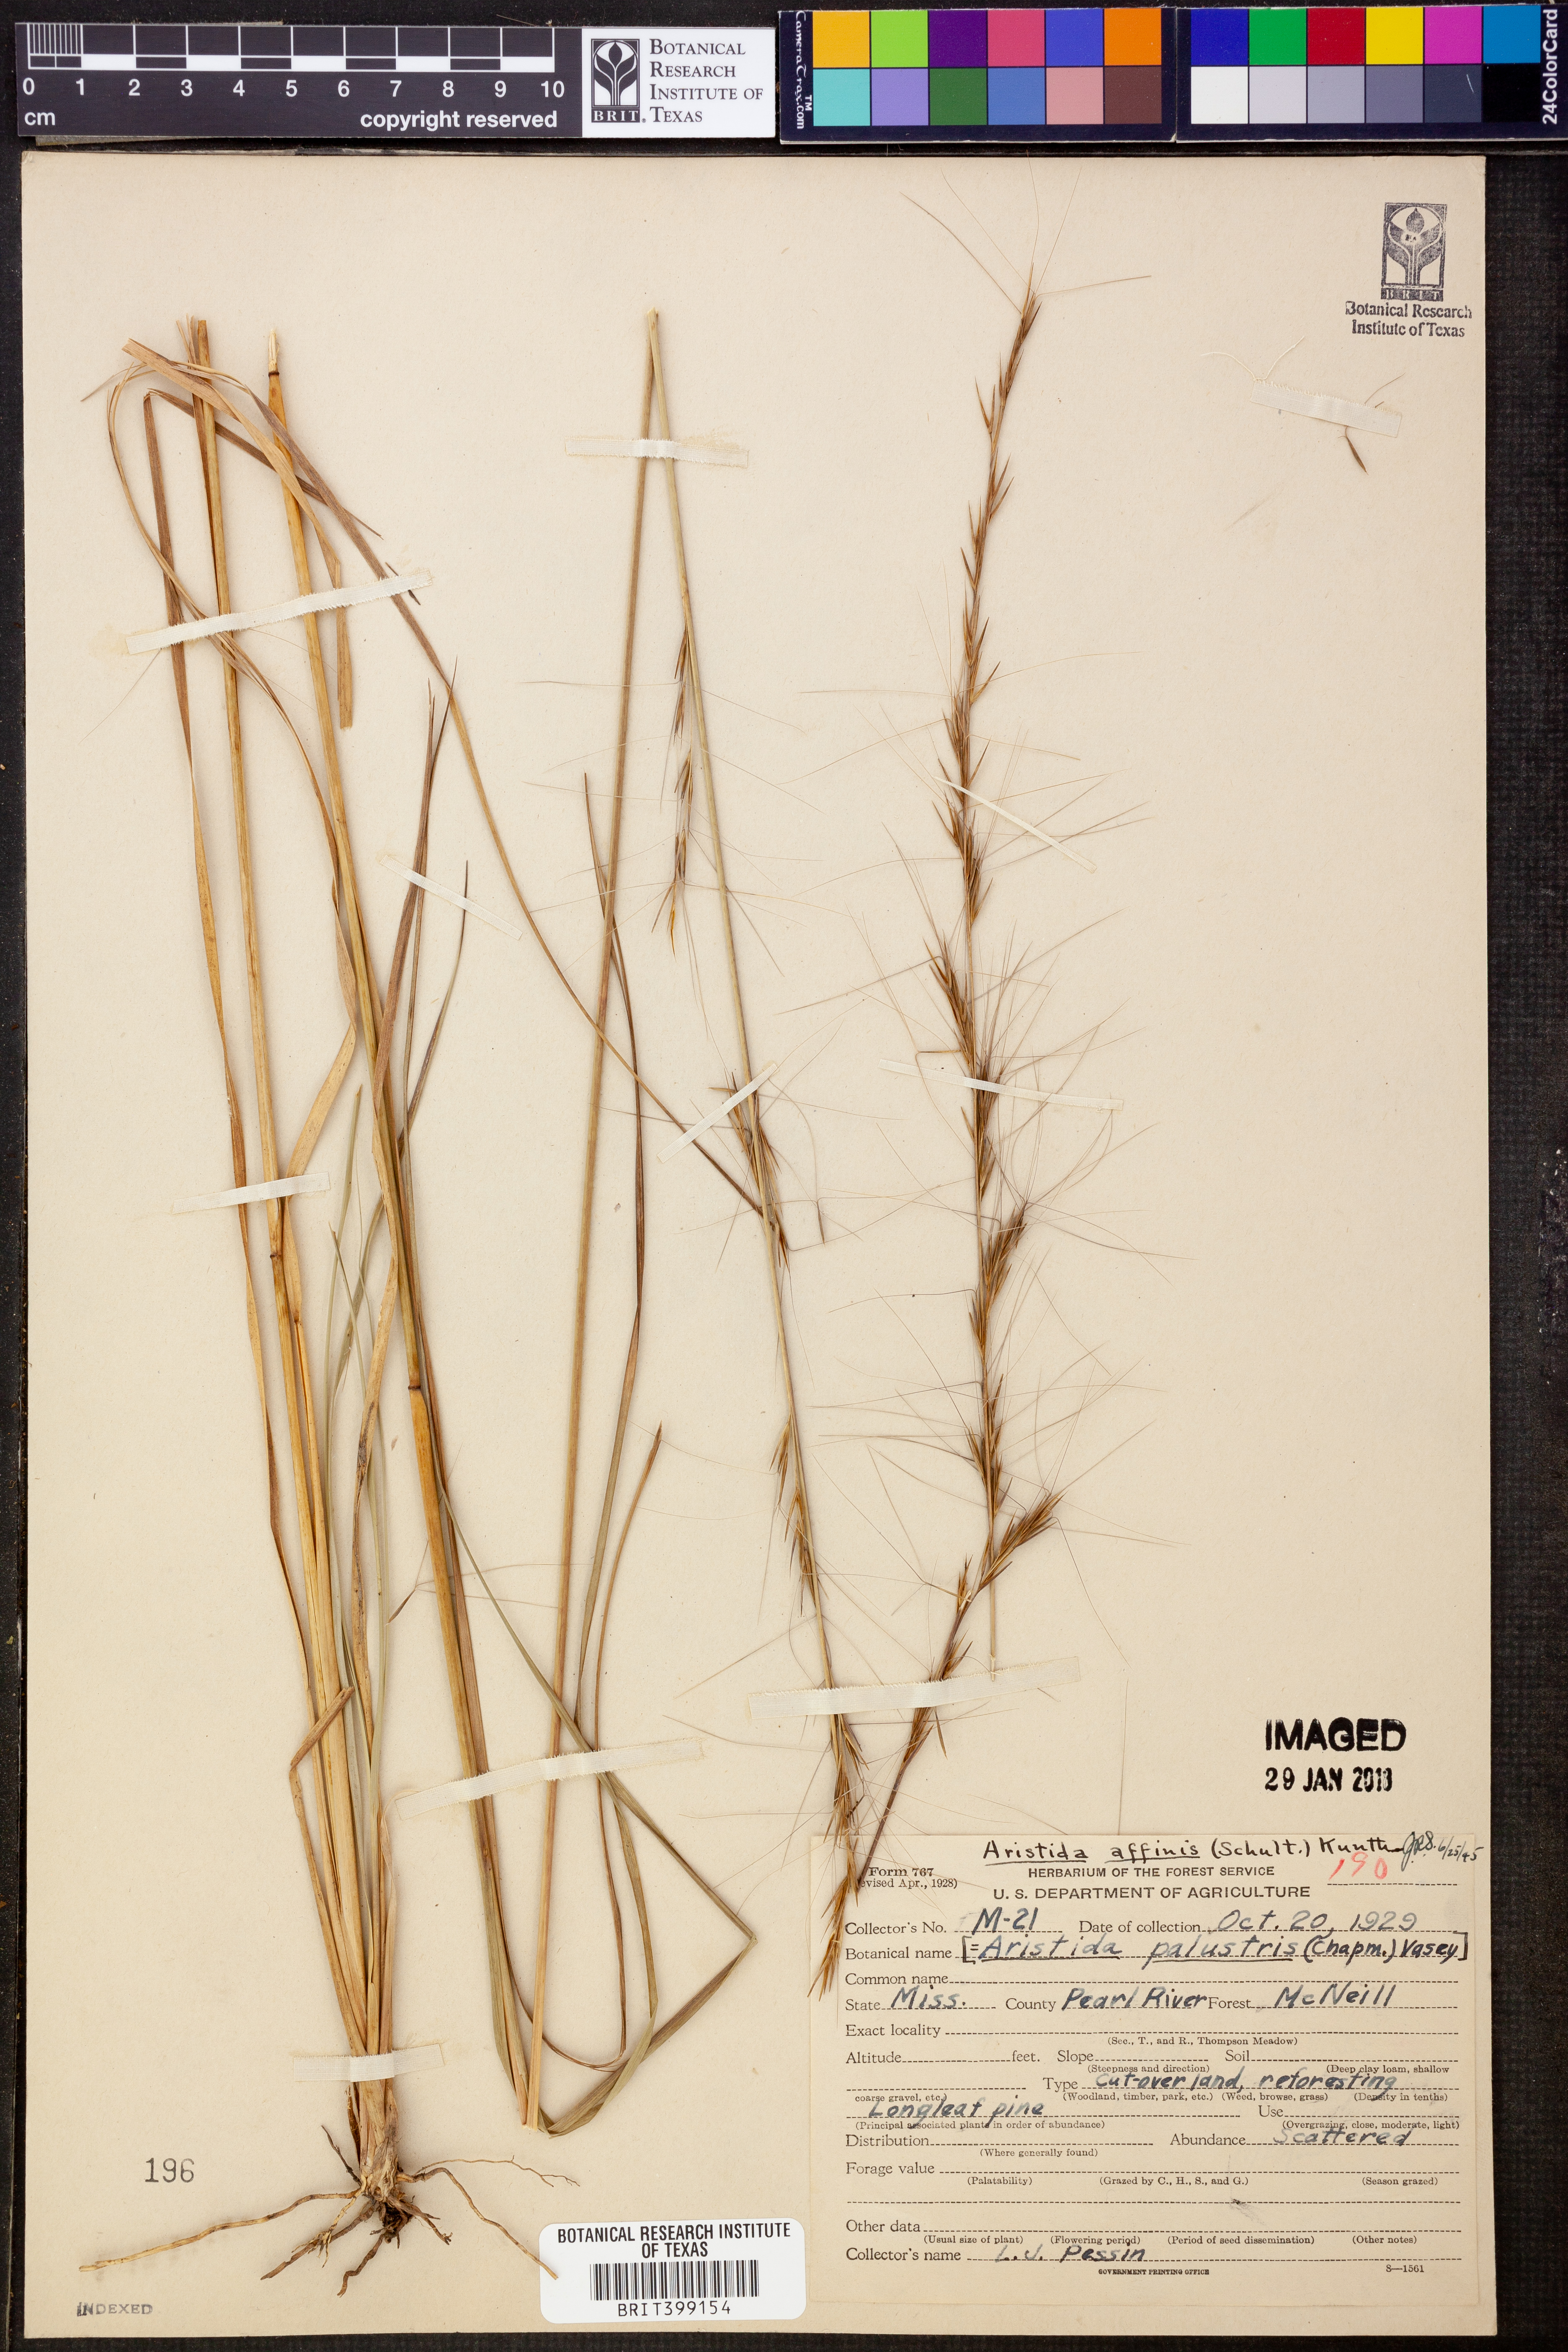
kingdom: Plantae
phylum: Tracheophyta
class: Liliopsida
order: Poales
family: Poaceae
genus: Aristida
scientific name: Aristida purpurascens
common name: Arrow-feather
